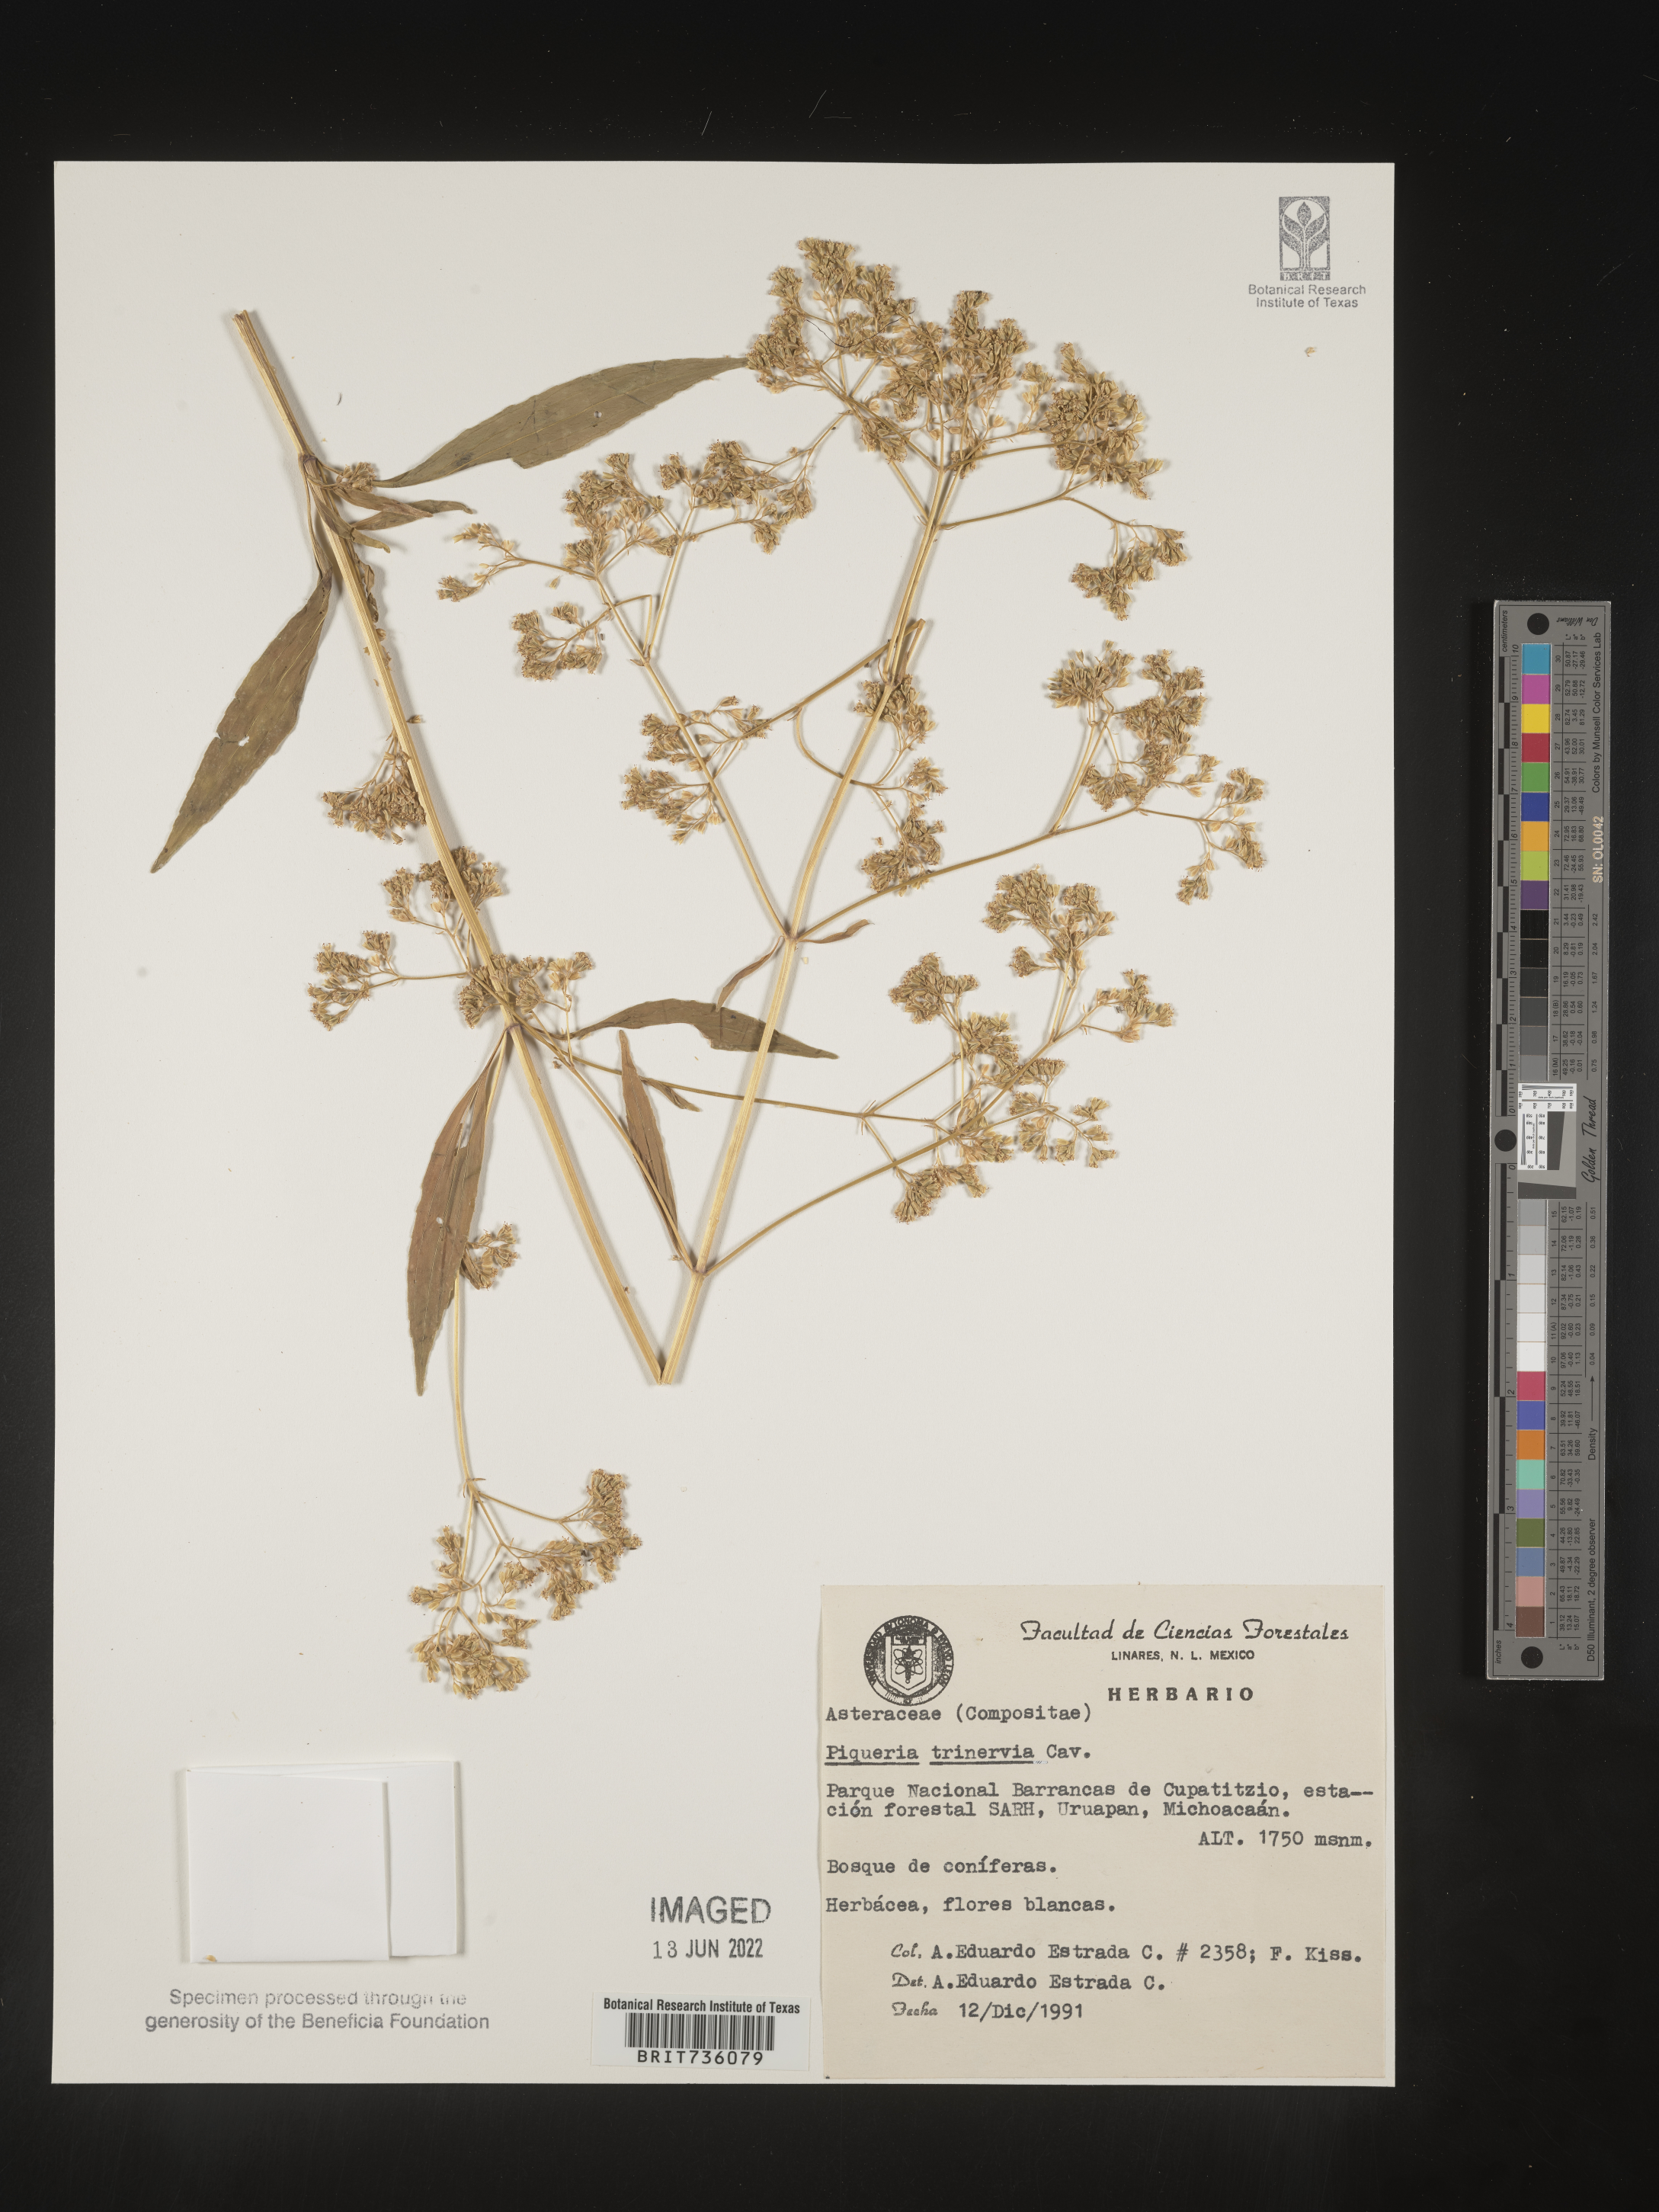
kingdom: Plantae
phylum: Tracheophyta
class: Magnoliopsida
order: Asterales
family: Asteraceae
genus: Piqueria
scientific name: Piqueria
